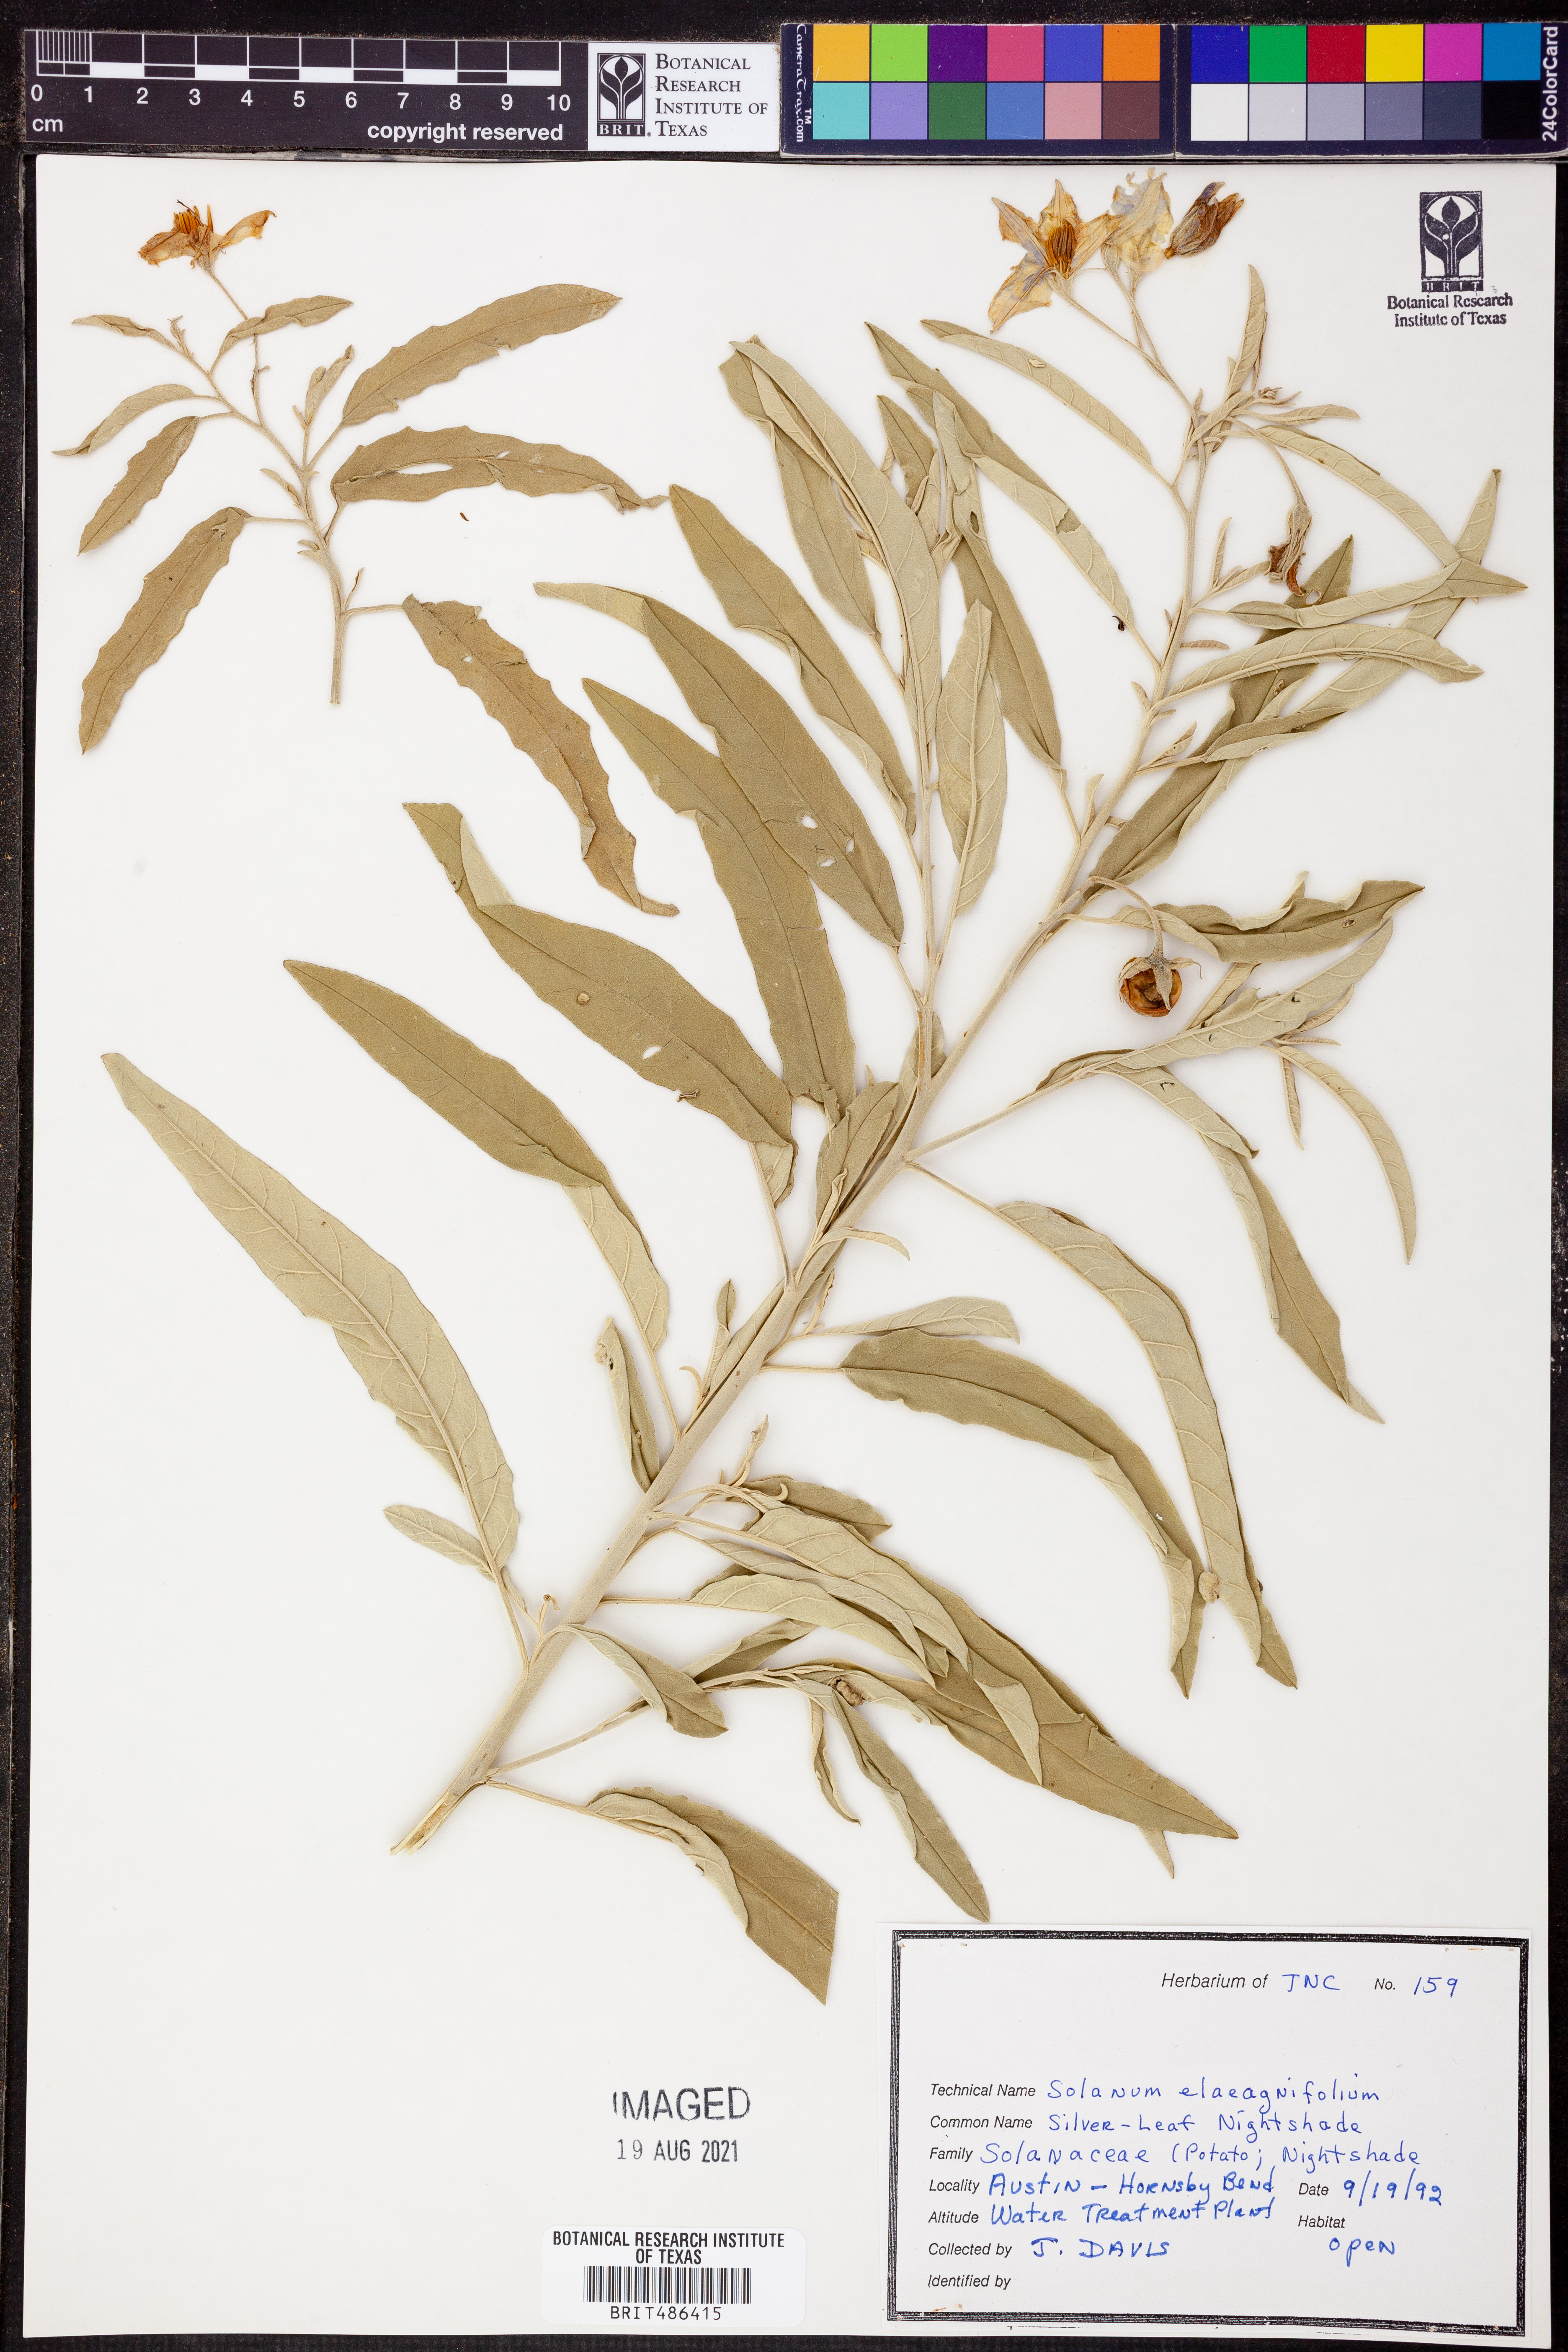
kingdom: Plantae
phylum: Tracheophyta
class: Magnoliopsida
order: Solanales
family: Solanaceae
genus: Solanum
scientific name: Solanum elaeagnifolium
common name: Silverleaf nightshade
